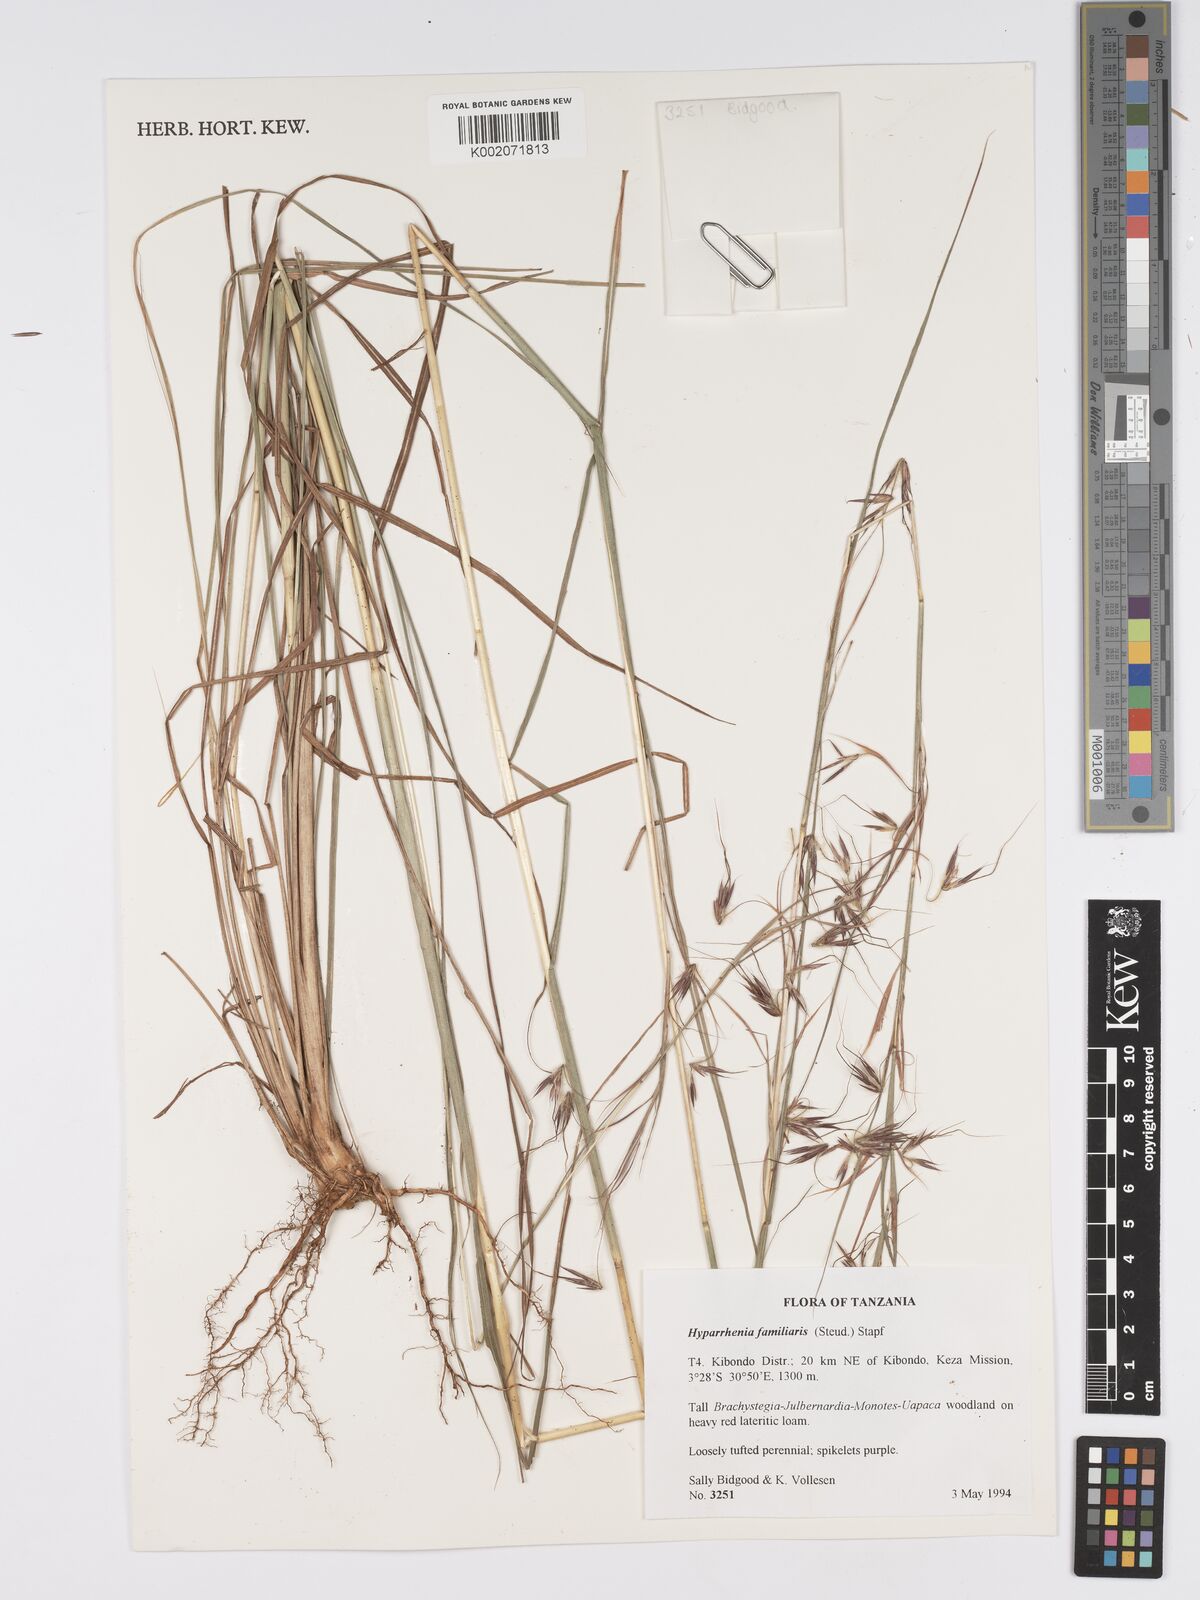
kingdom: Plantae
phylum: Tracheophyta
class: Liliopsida
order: Poales
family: Poaceae
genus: Hyparrhenia
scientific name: Hyparrhenia familiaris
